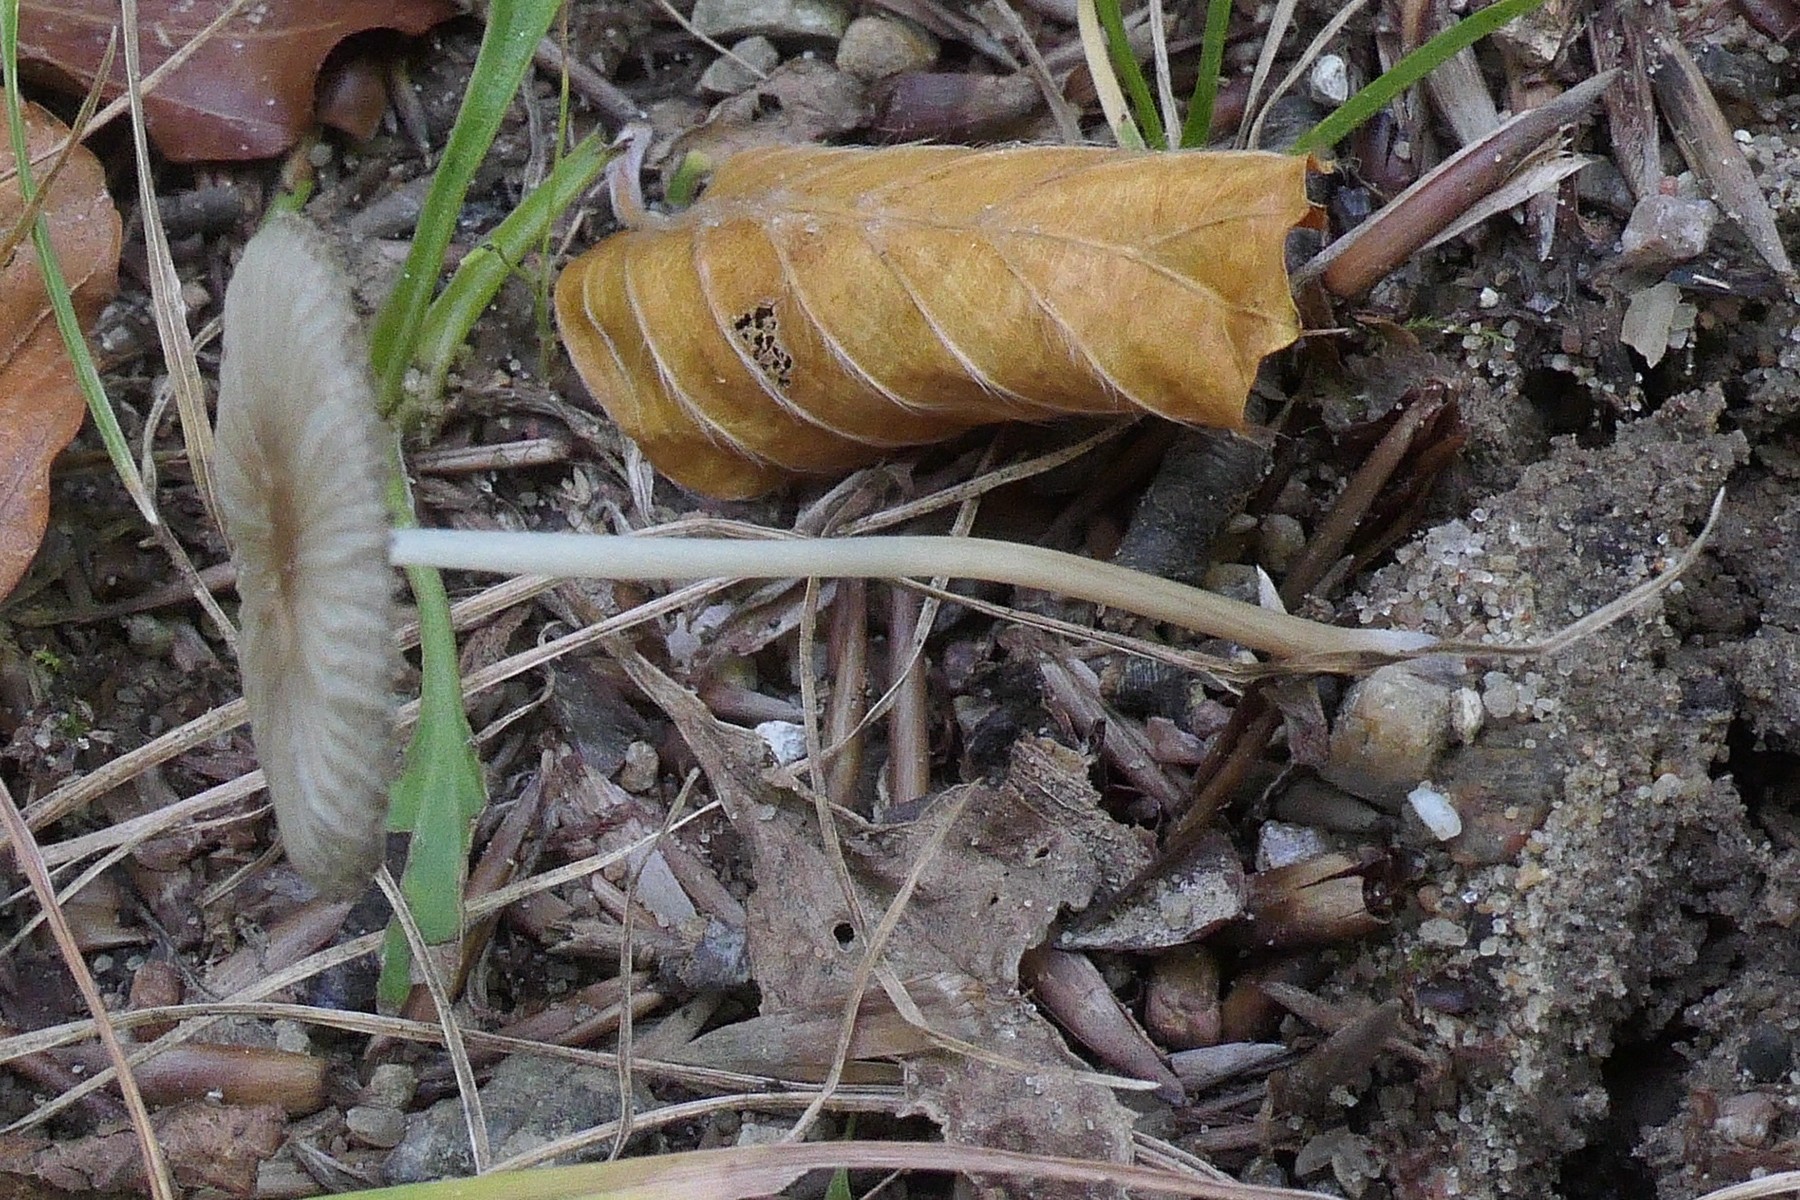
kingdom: Fungi
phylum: Basidiomycota
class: Agaricomycetes
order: Agaricales
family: Psathyrellaceae
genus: Parasola
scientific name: Parasola lactea
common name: glat hjulhat
